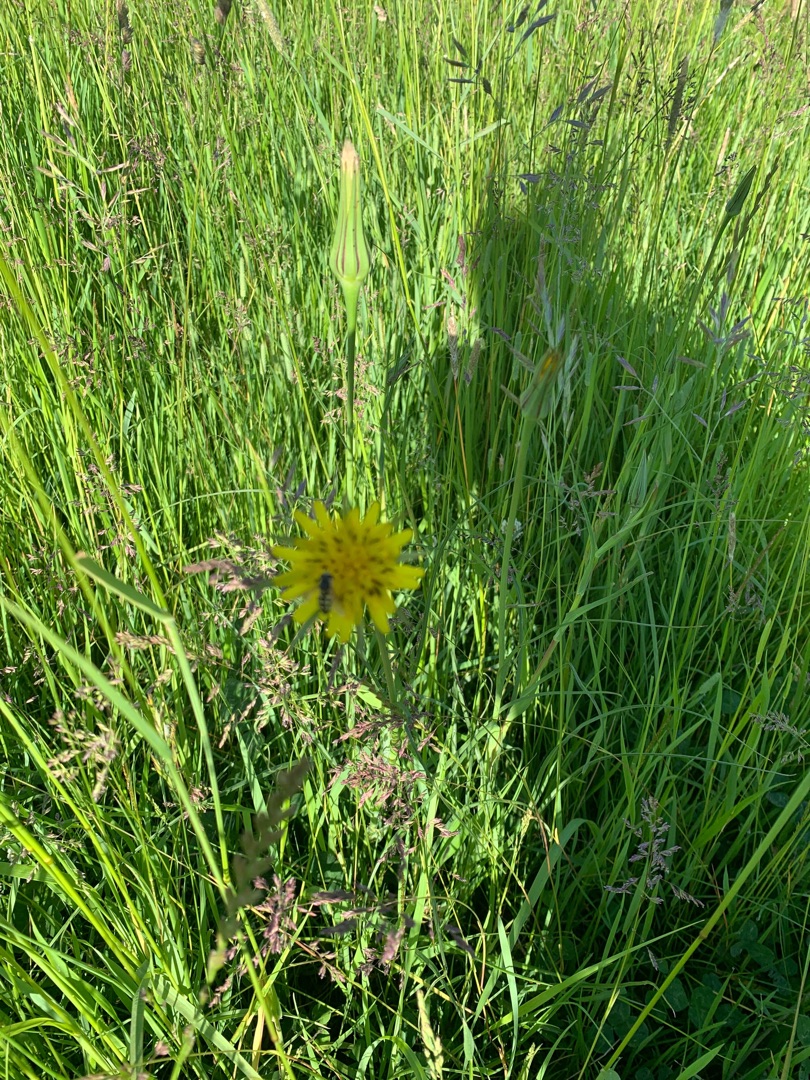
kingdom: Plantae
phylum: Tracheophyta
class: Magnoliopsida
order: Asterales
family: Asteraceae
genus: Tragopogon
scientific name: Tragopogon minor
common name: Småkronet gedeskæg
